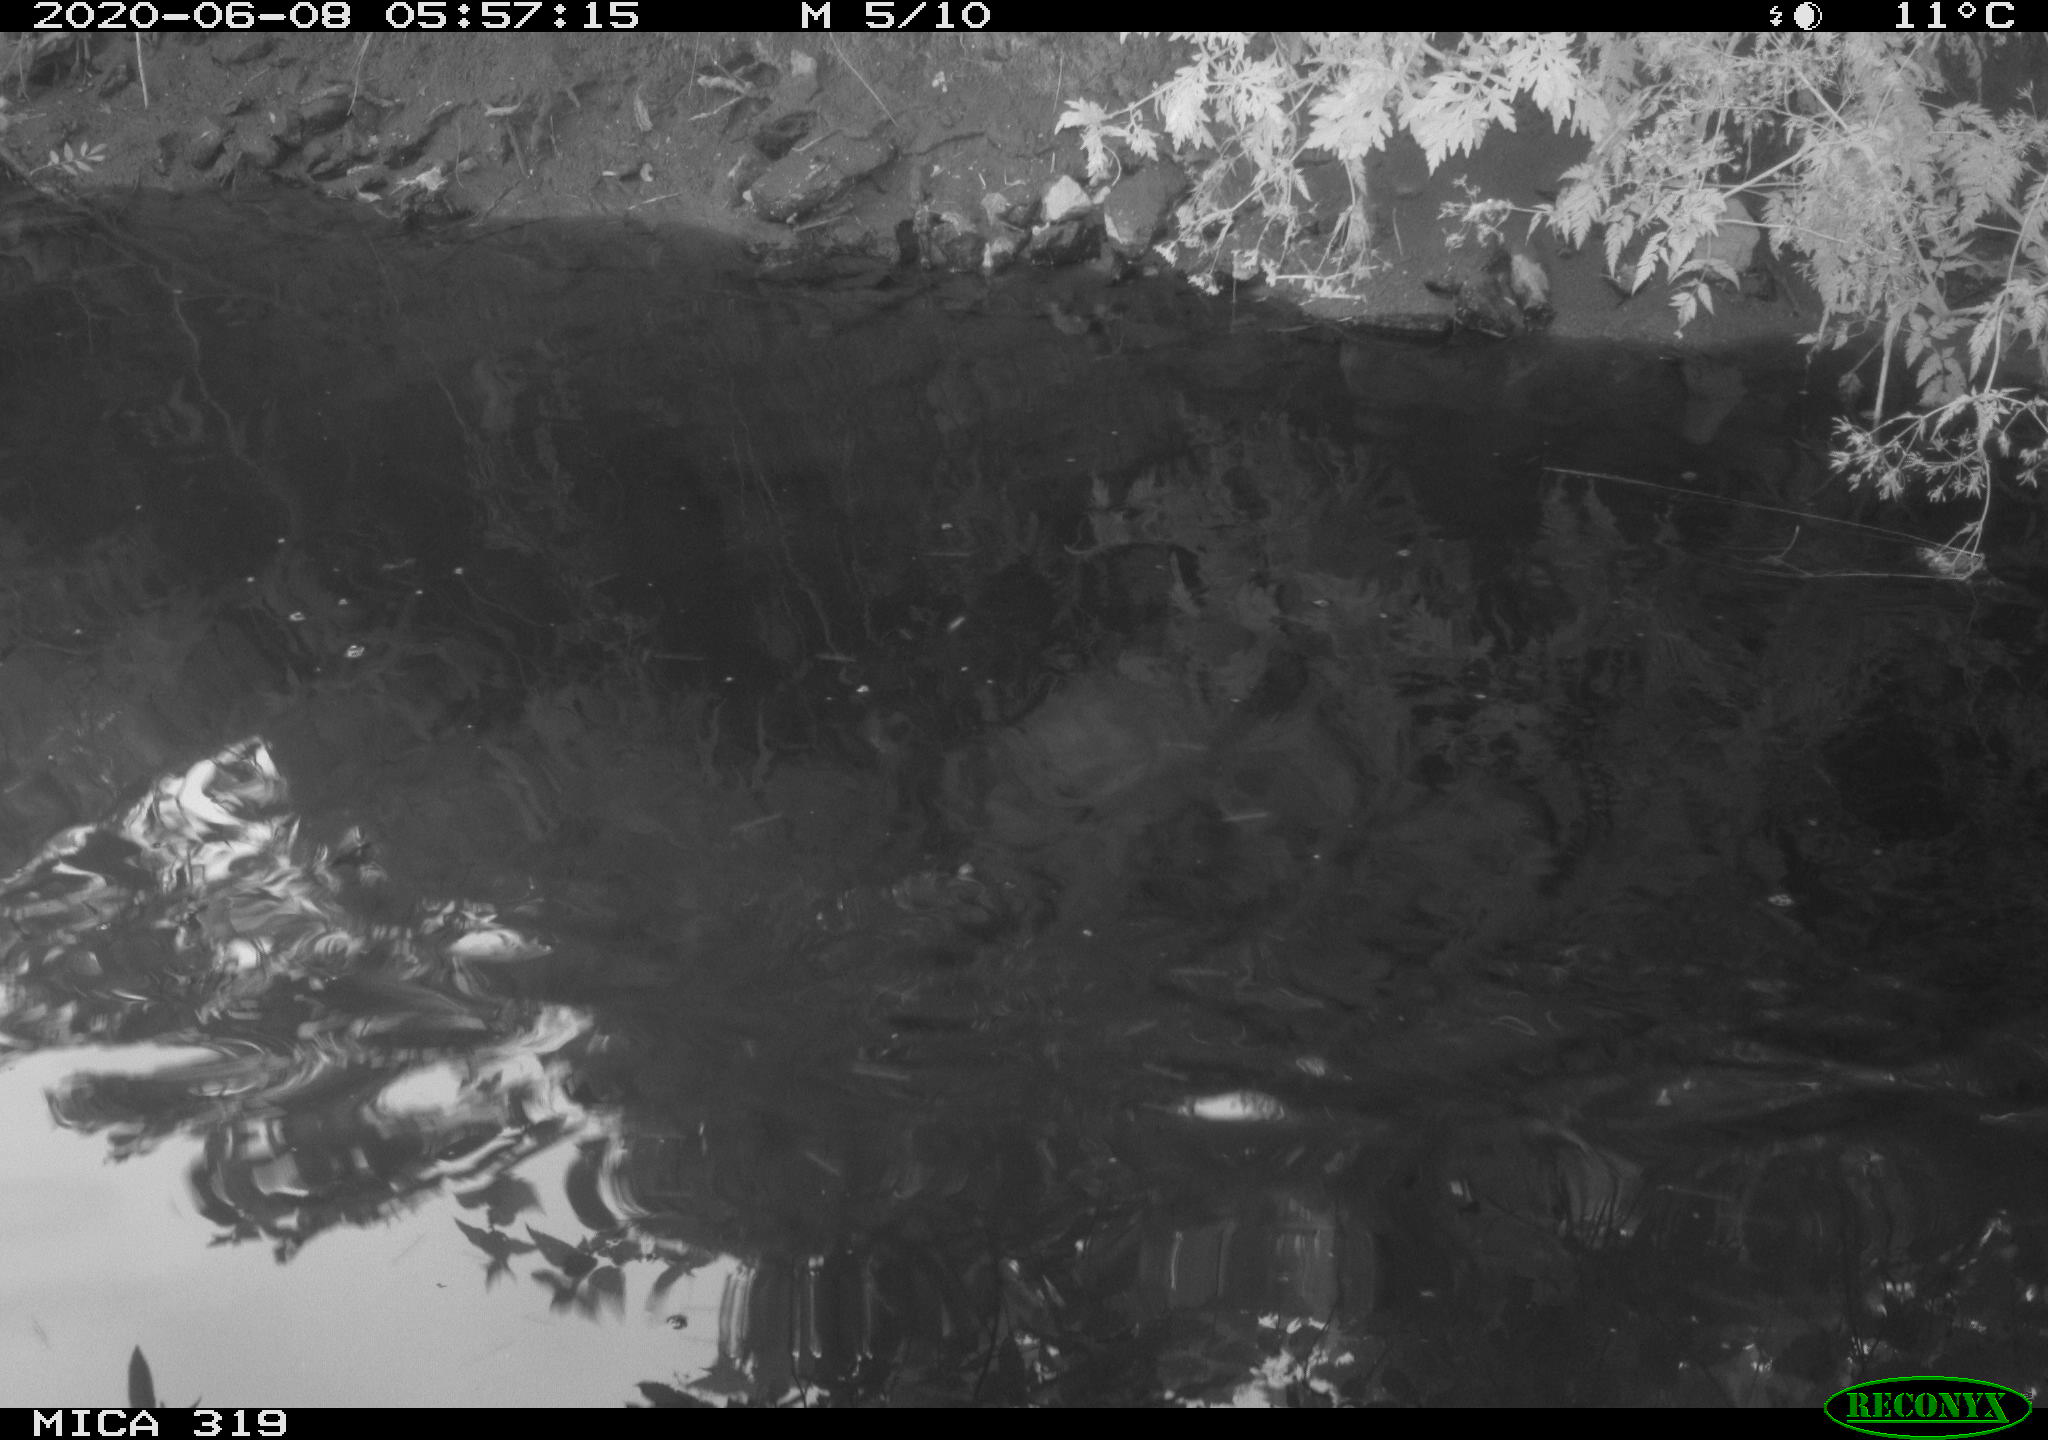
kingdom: Animalia
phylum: Chordata
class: Aves
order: Gruiformes
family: Rallidae
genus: Gallinula
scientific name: Gallinula chloropus
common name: Common moorhen
